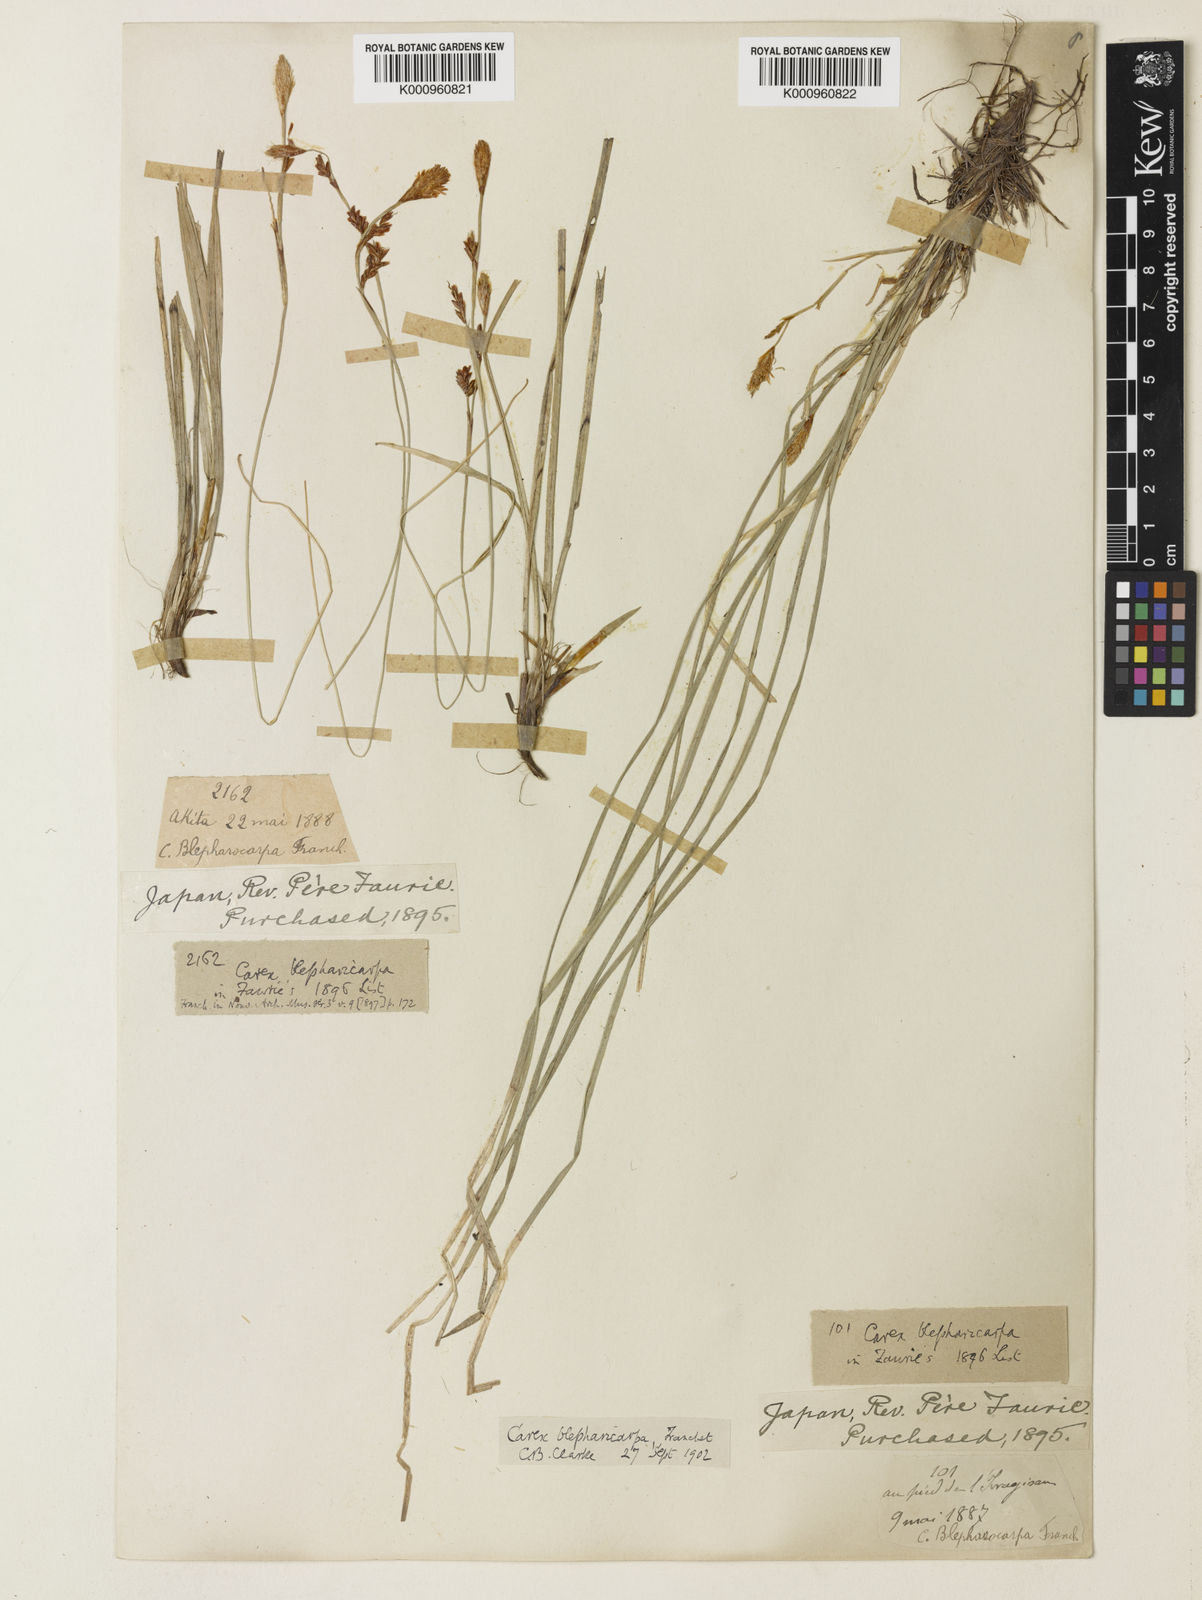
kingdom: Plantae
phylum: Tracheophyta
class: Liliopsida
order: Poales
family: Cyperaceae
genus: Carex
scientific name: Carex blepharicarpa
